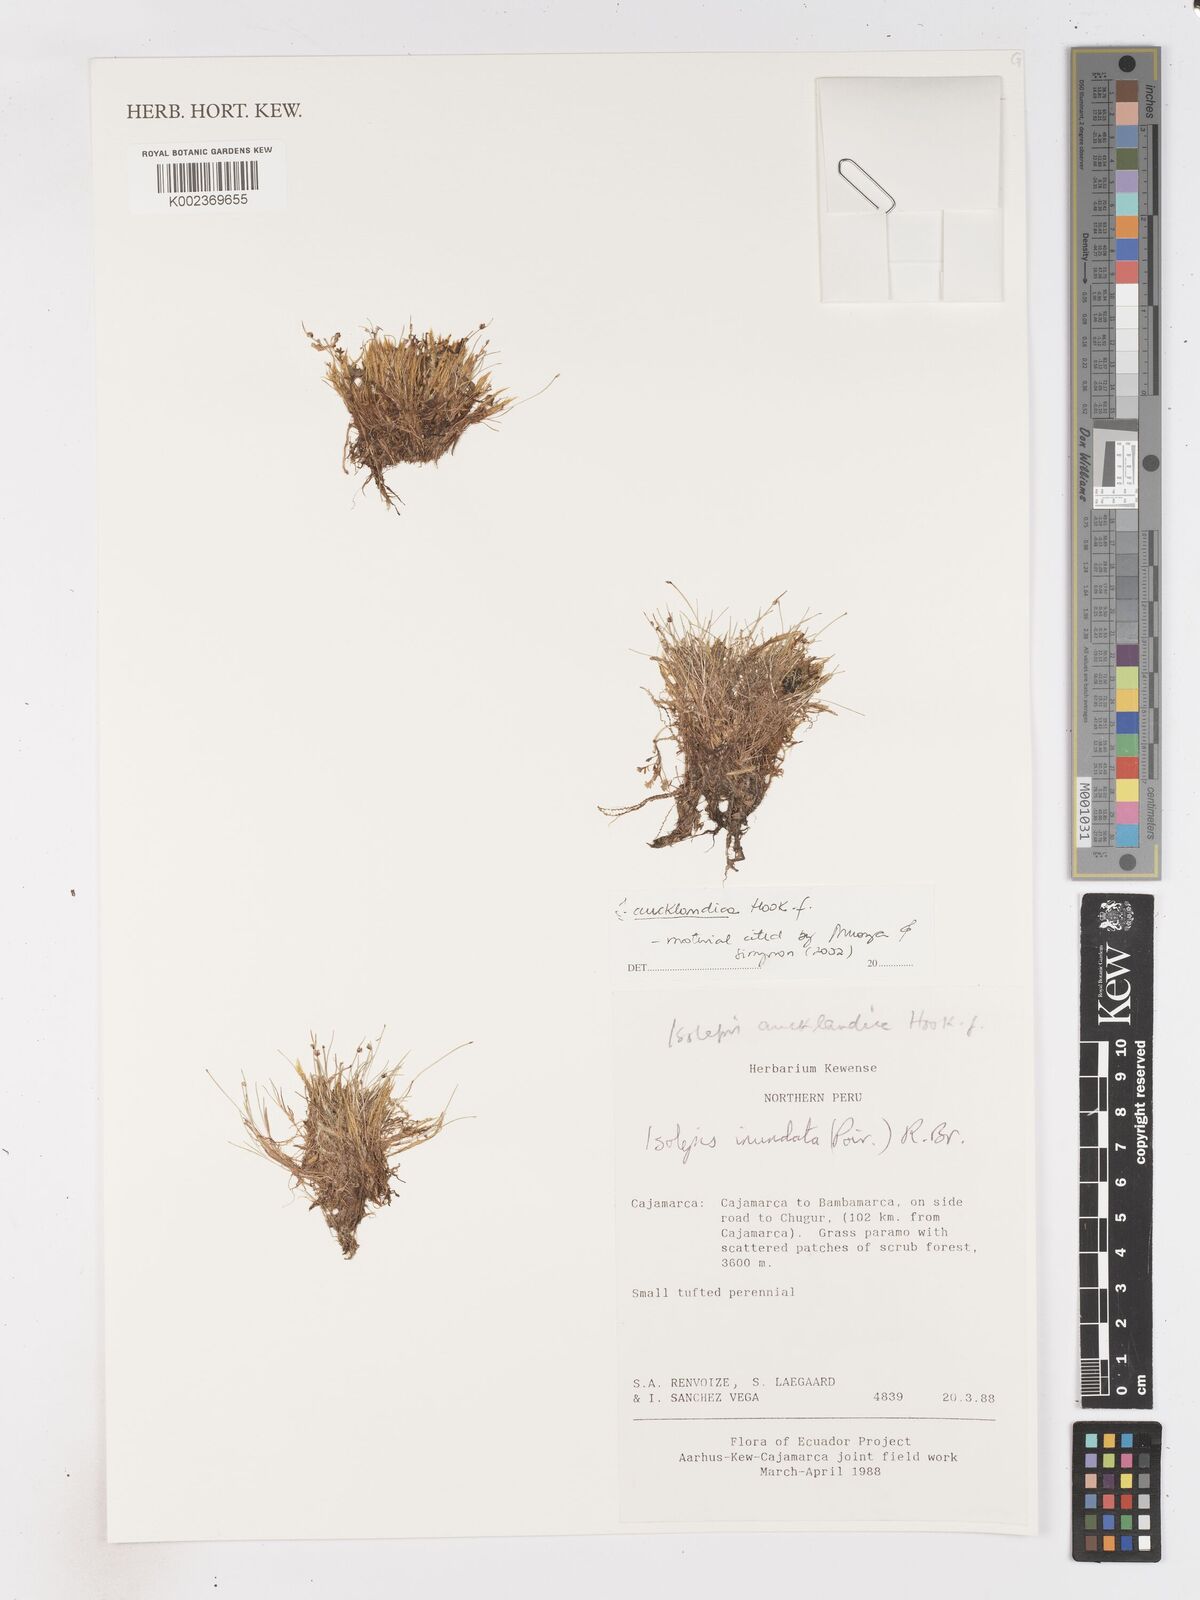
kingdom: Plantae
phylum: Tracheophyta
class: Liliopsida
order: Poales
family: Cyperaceae
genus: Isolepis
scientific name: Isolepis aucklandica
